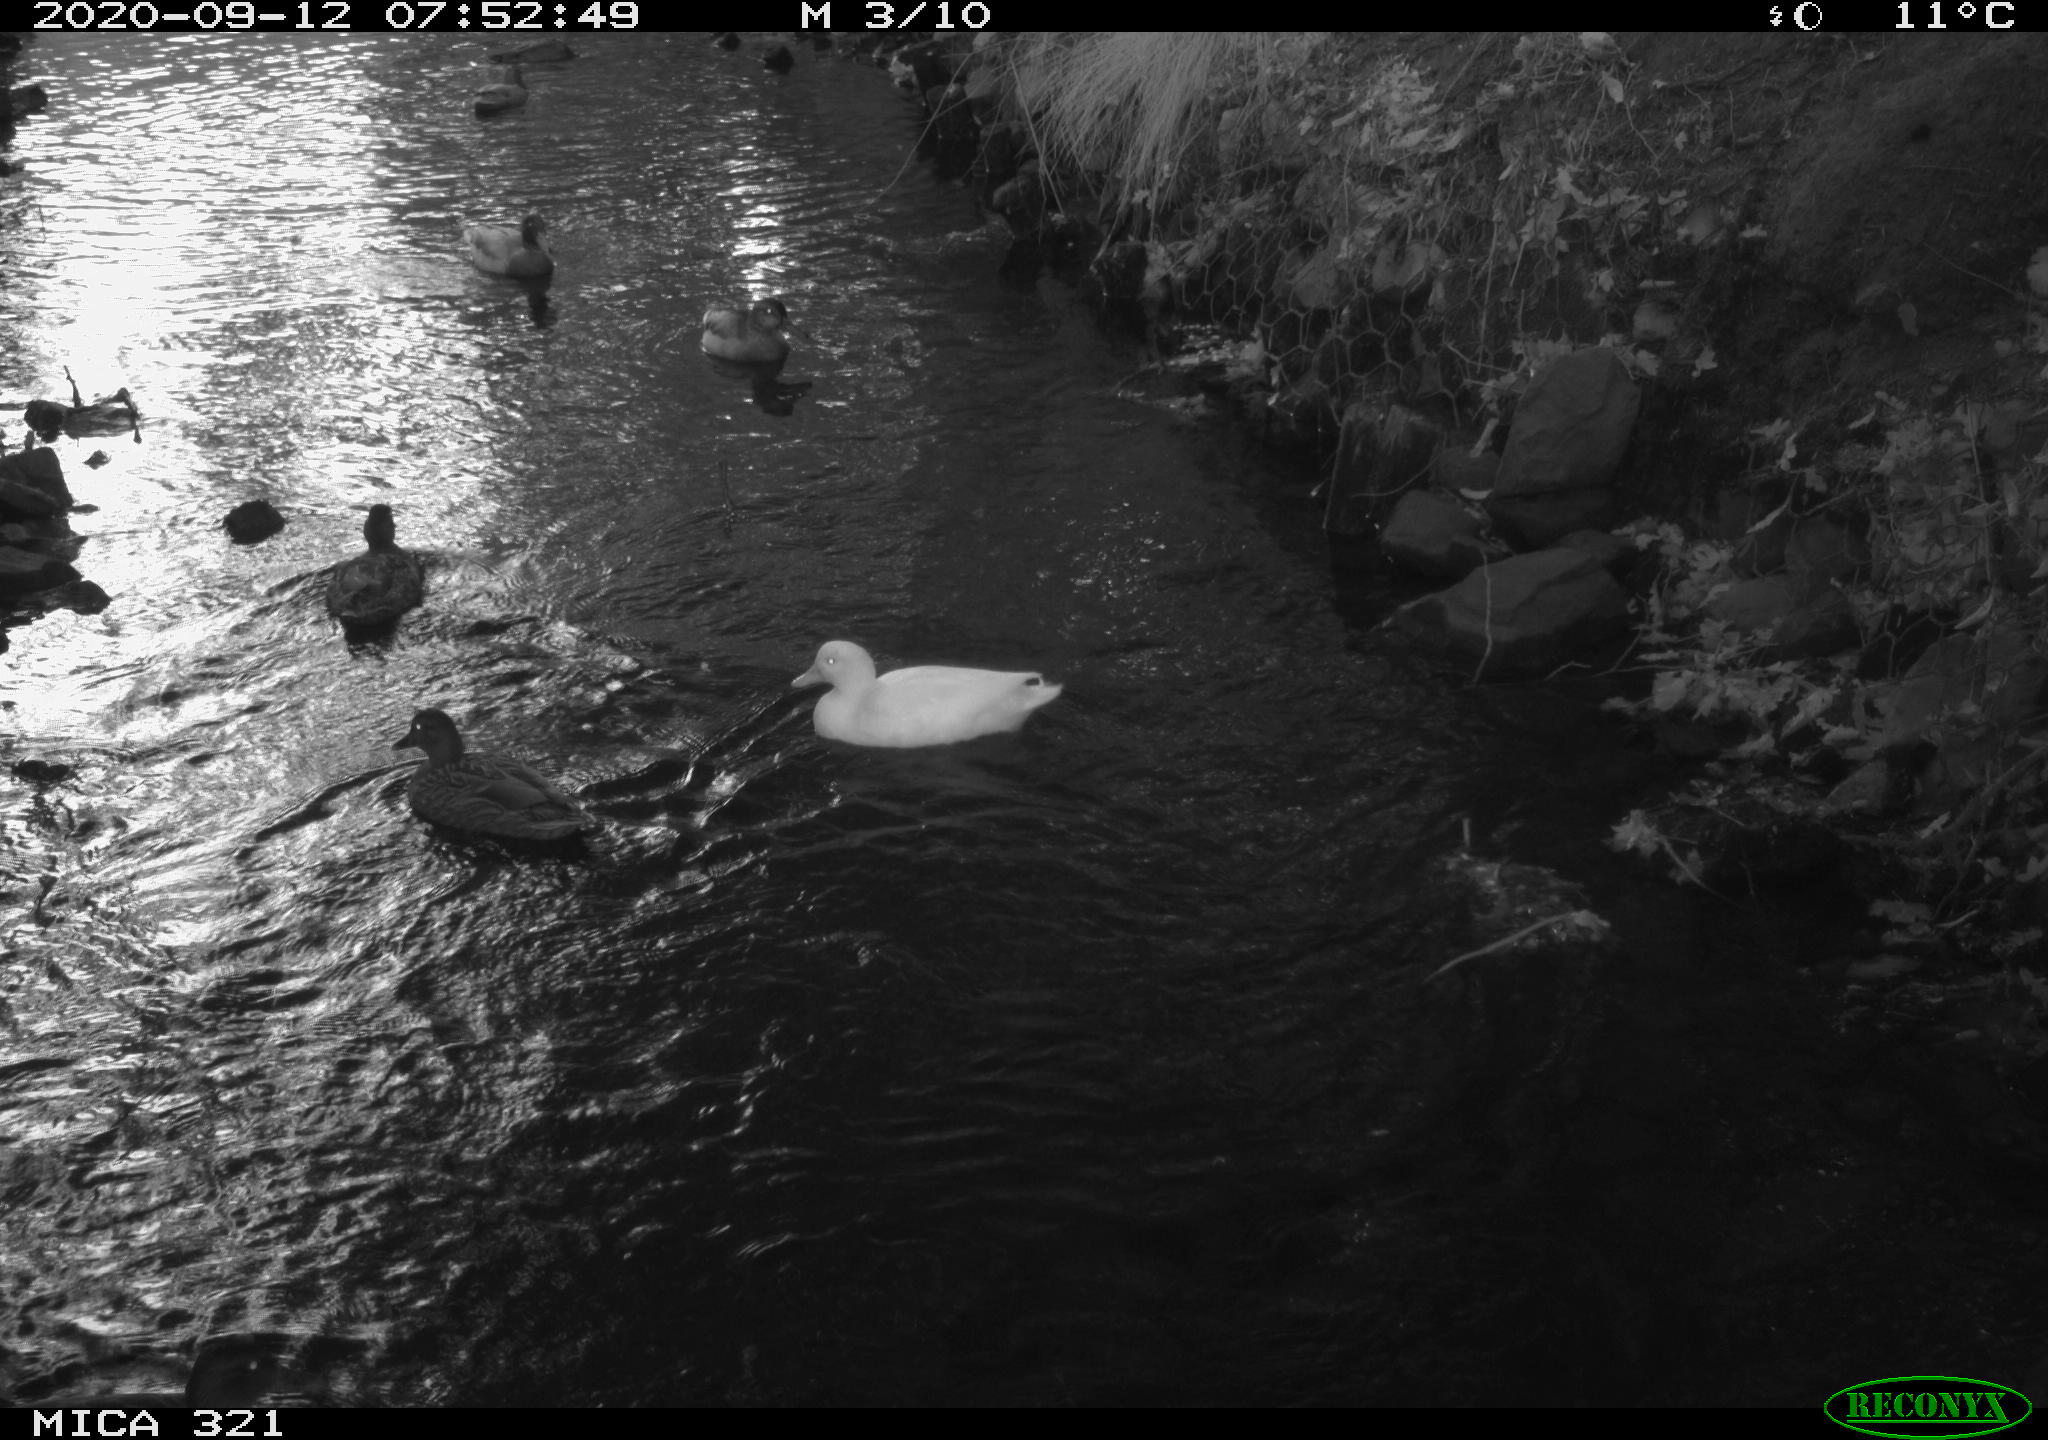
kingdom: Animalia
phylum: Chordata
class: Aves
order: Anseriformes
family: Anatidae
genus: Anas
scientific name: Anas platyrhynchos
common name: Mallard
